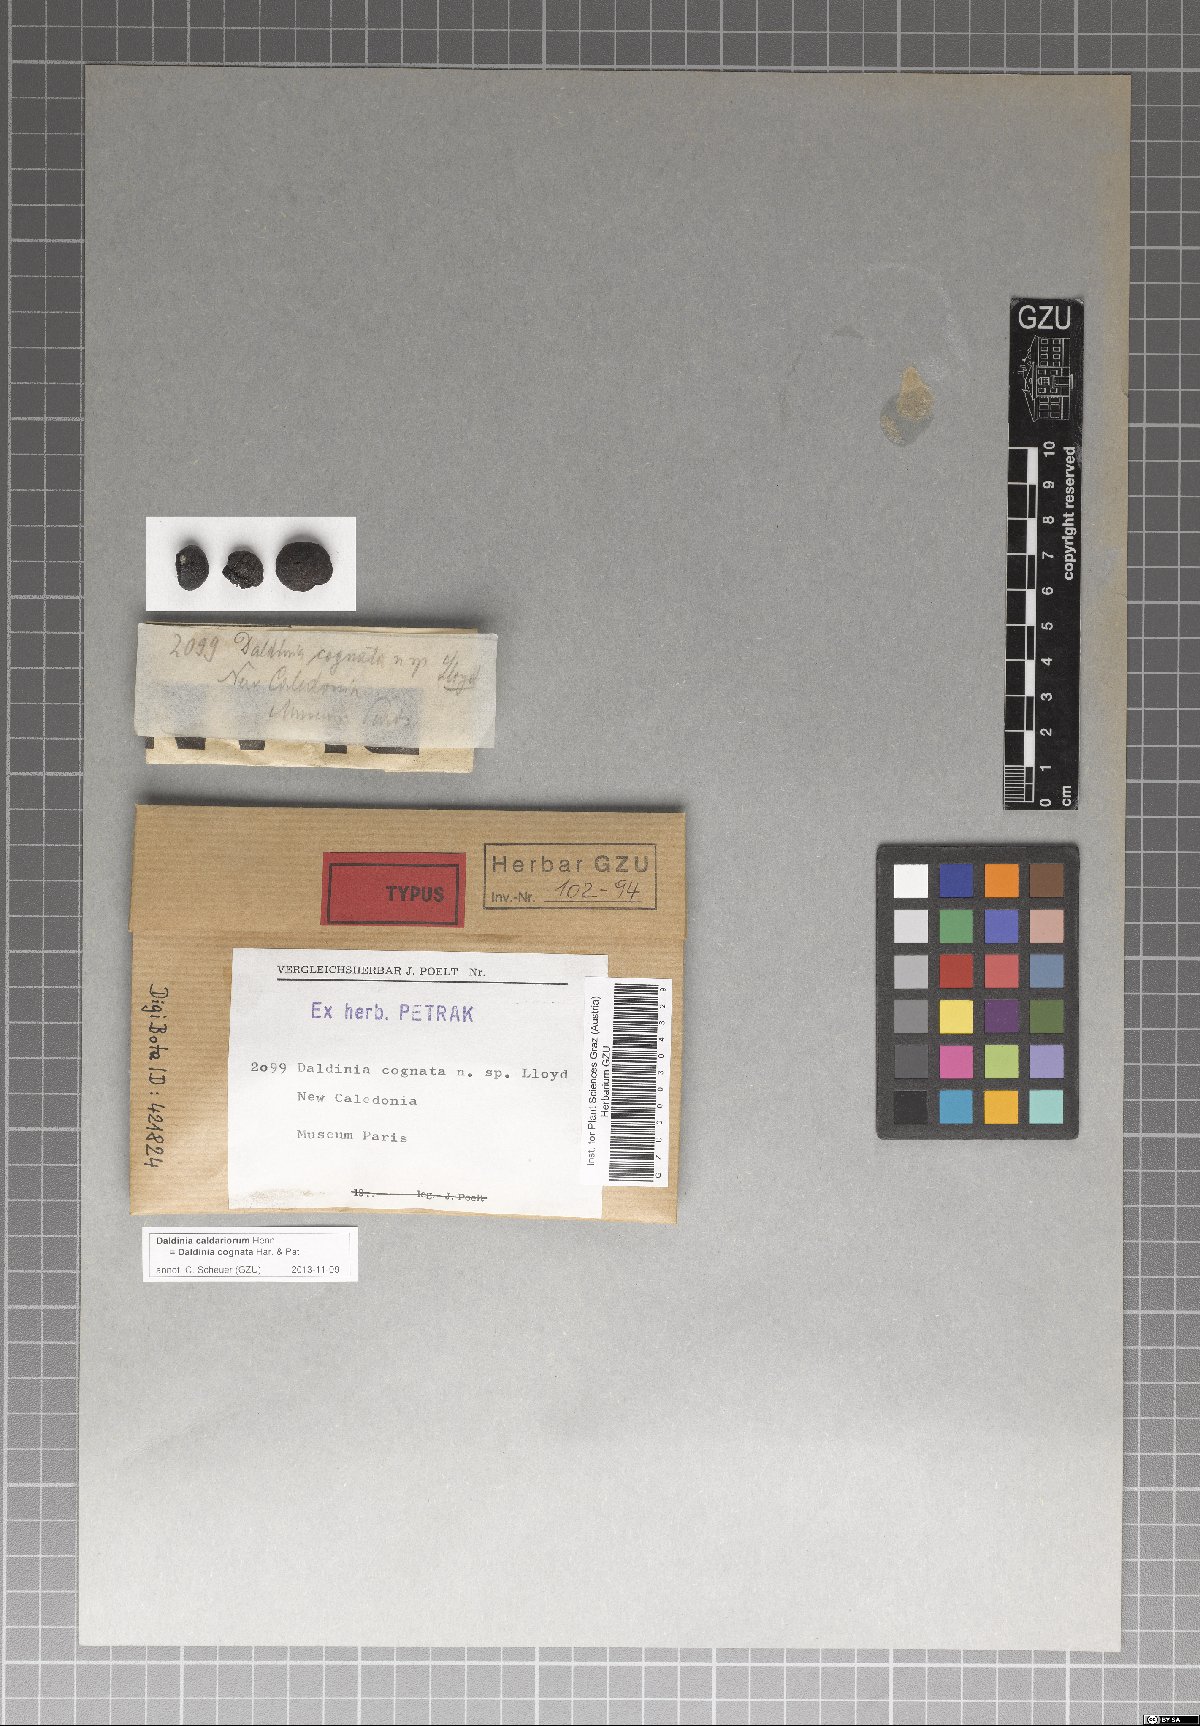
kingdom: Fungi
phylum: Ascomycota
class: Sordariomycetes
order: Xylariales
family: Hypoxylaceae
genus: Daldinia
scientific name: Daldinia caldariorum
